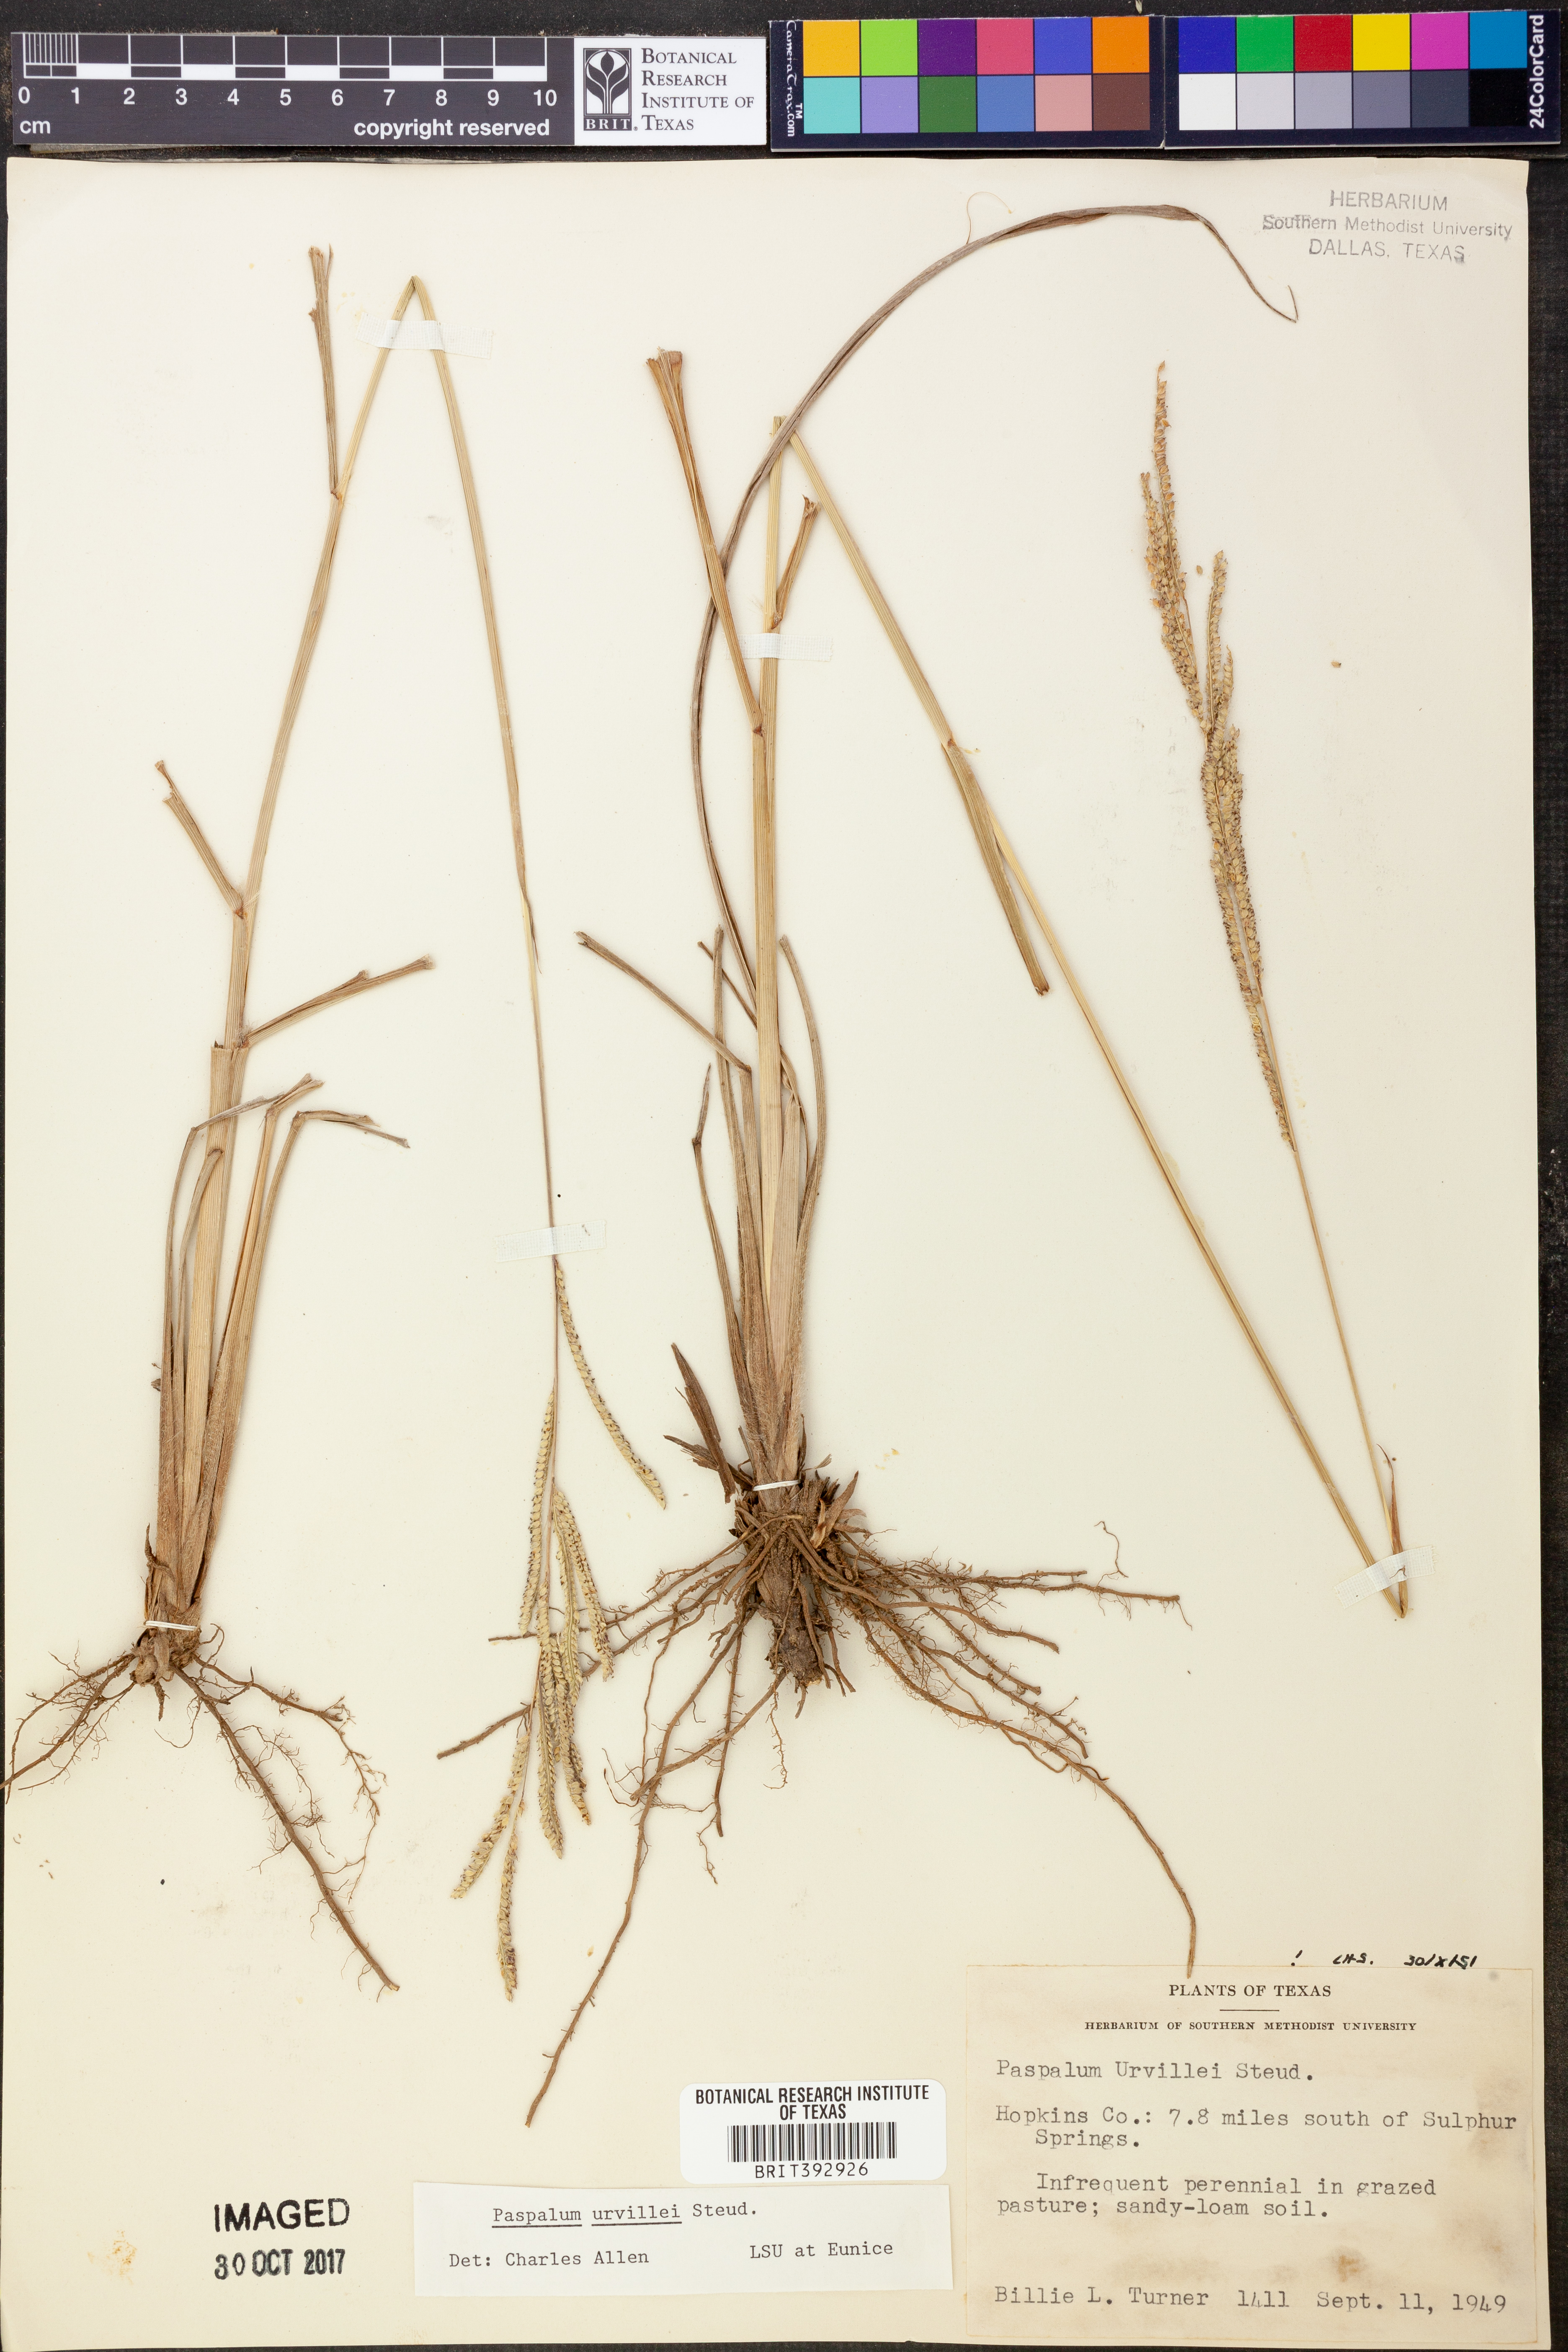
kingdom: Plantae
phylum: Tracheophyta
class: Liliopsida
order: Poales
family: Poaceae
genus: Paspalum
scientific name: Paspalum urvillei
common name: Vasey's grass
